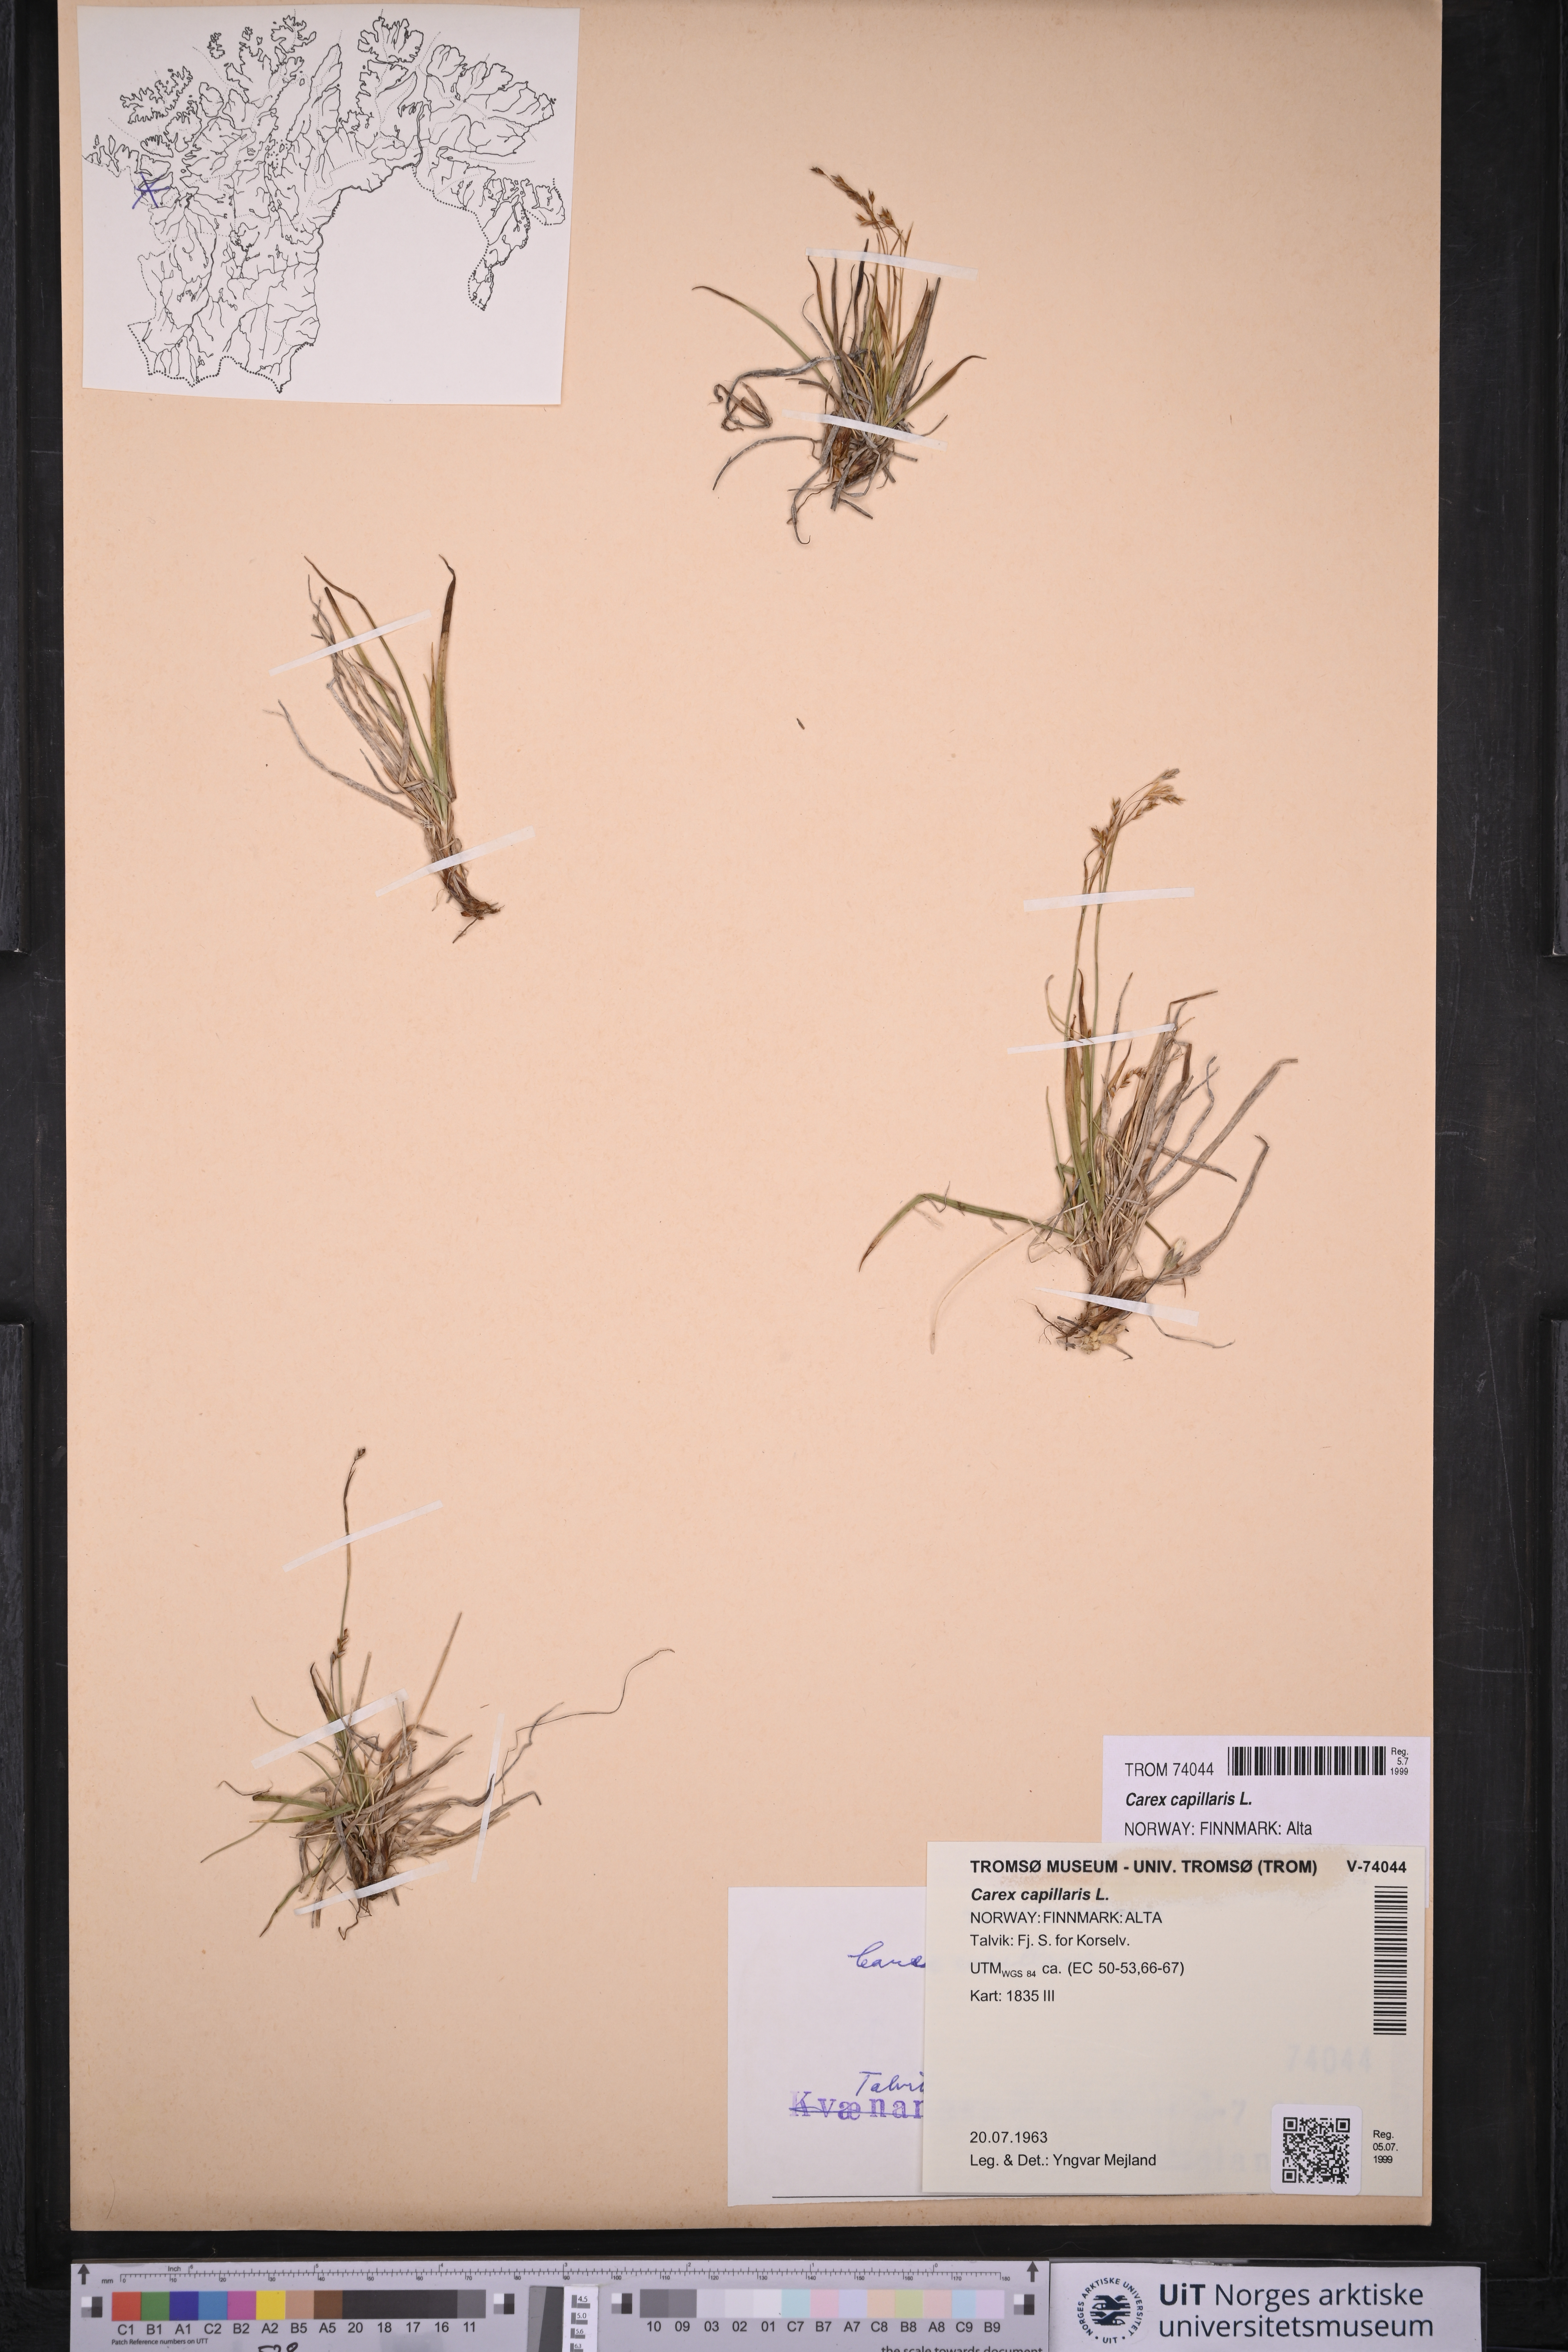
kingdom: Plantae
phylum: Tracheophyta
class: Liliopsida
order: Poales
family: Cyperaceae
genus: Carex
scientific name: Carex capillaris
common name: Hair sedge
